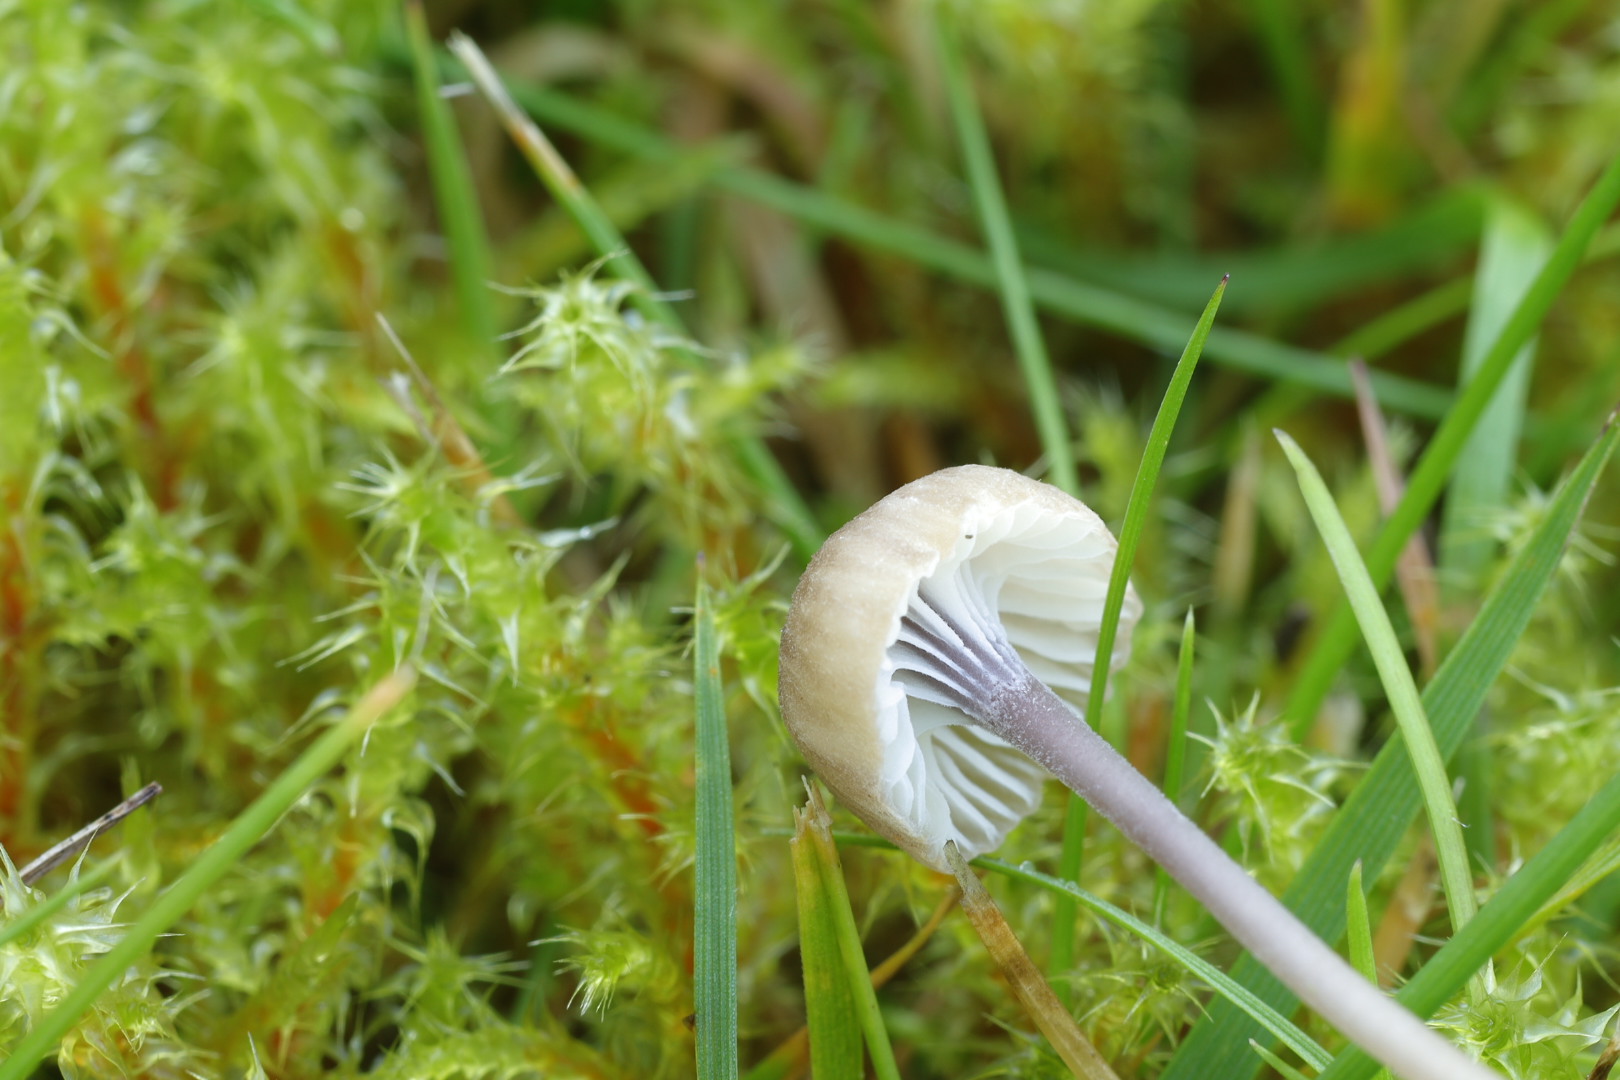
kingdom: Fungi
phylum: Basidiomycota
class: Agaricomycetes
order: Hymenochaetales
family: Rickenellaceae
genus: Rickenella
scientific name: Rickenella swartzii
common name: finstokket mosnavlehat
